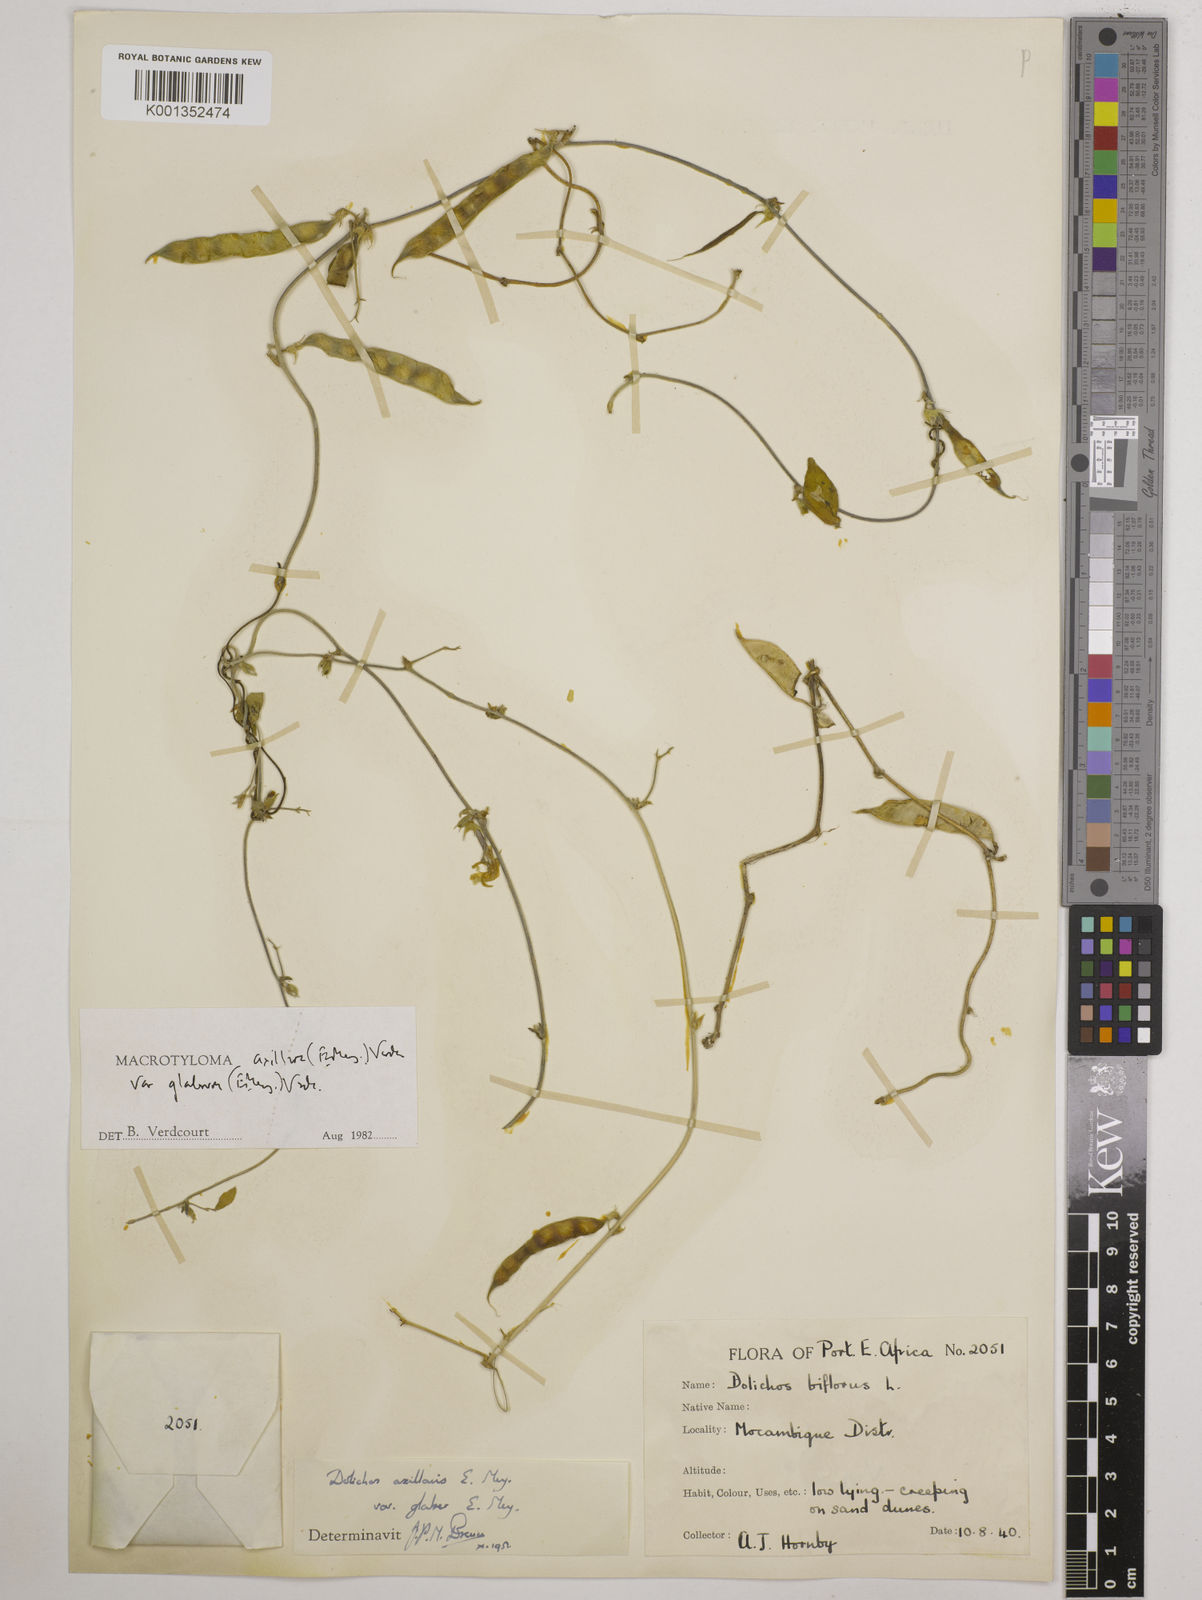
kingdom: Plantae
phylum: Tracheophyta
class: Magnoliopsida
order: Fabales
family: Fabaceae
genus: Macrotyloma
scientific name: Macrotyloma
